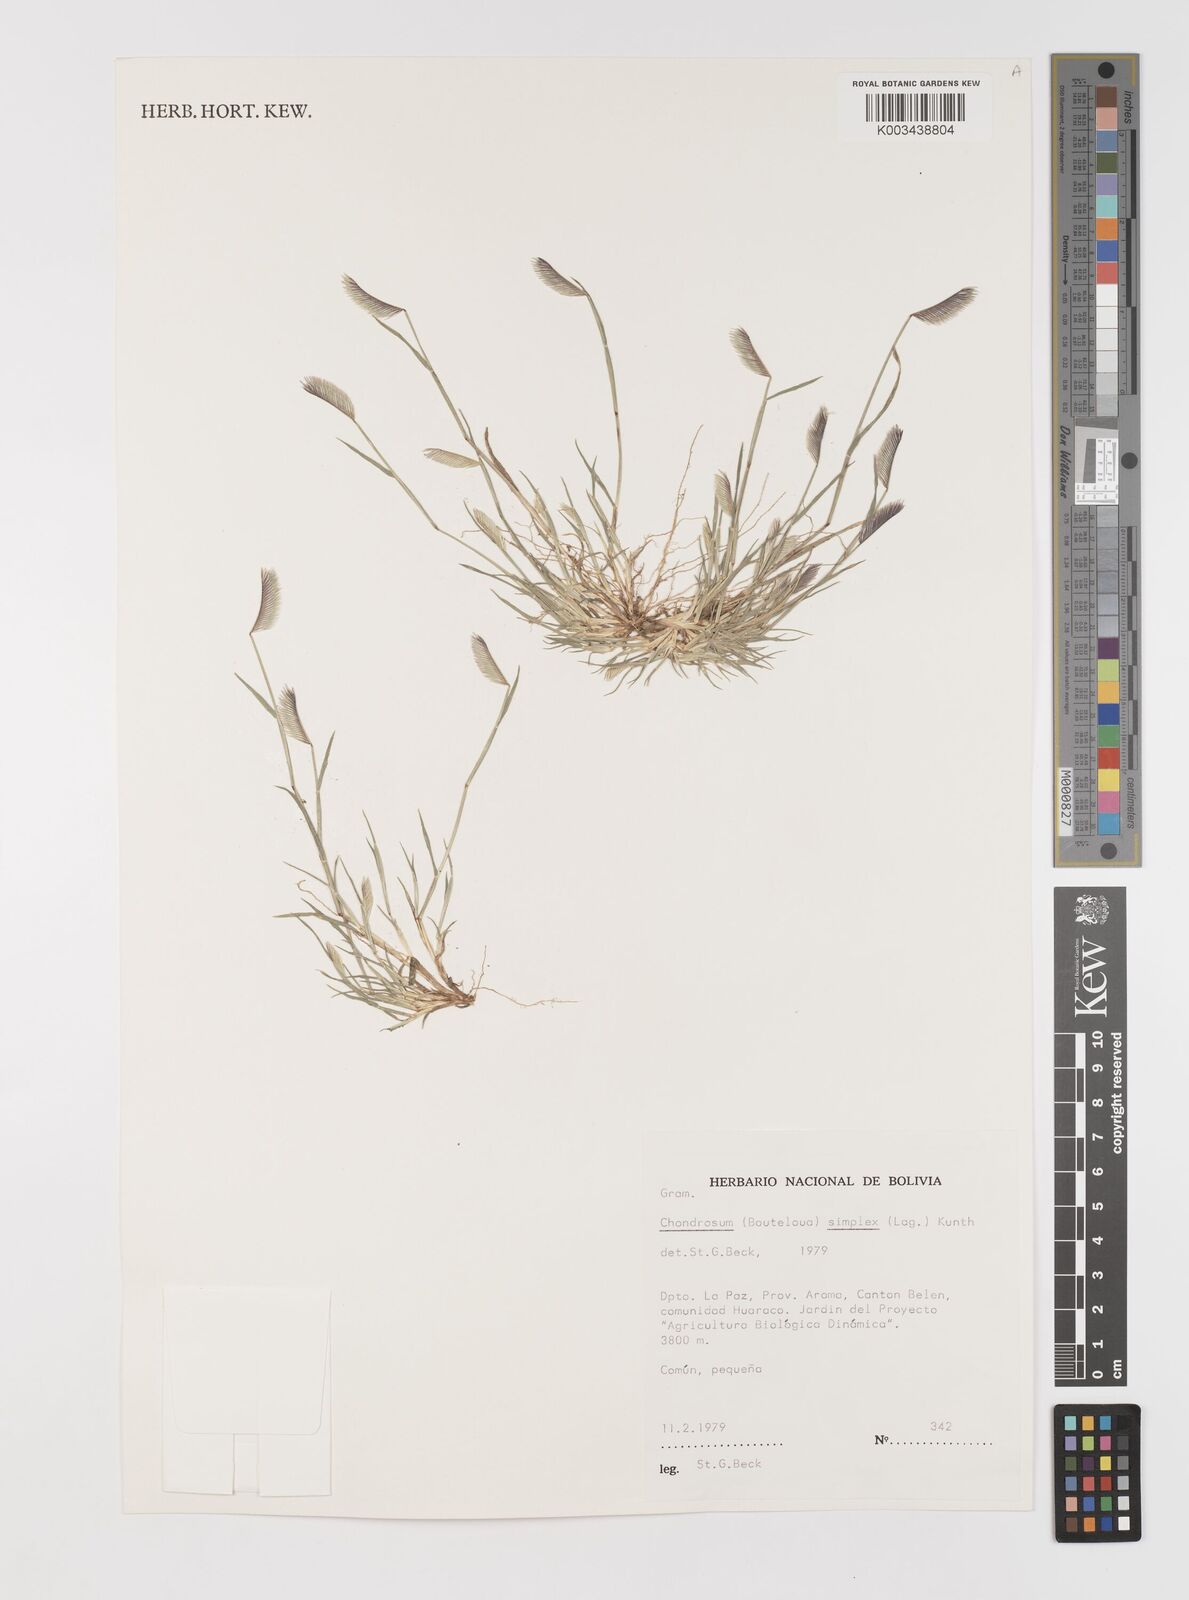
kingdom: Plantae
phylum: Tracheophyta
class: Liliopsida
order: Poales
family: Poaceae
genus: Bouteloua
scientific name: Bouteloua simplex
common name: Mat grama
